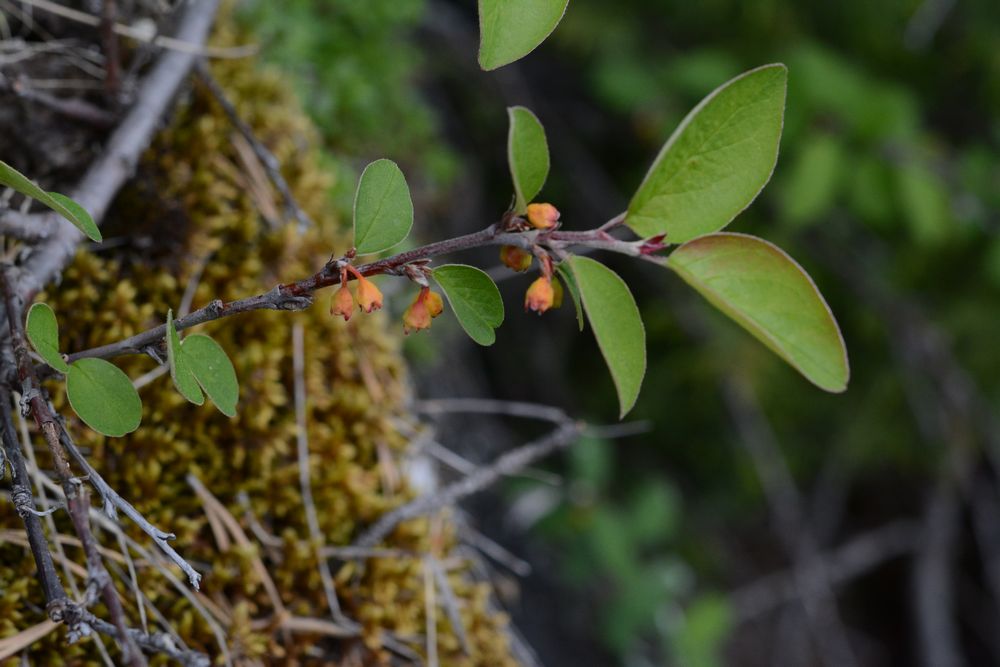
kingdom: Plantae
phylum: Tracheophyta
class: Magnoliopsida
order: Rosales
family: Rosaceae
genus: Cotoneaster
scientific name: Cotoneaster niger
